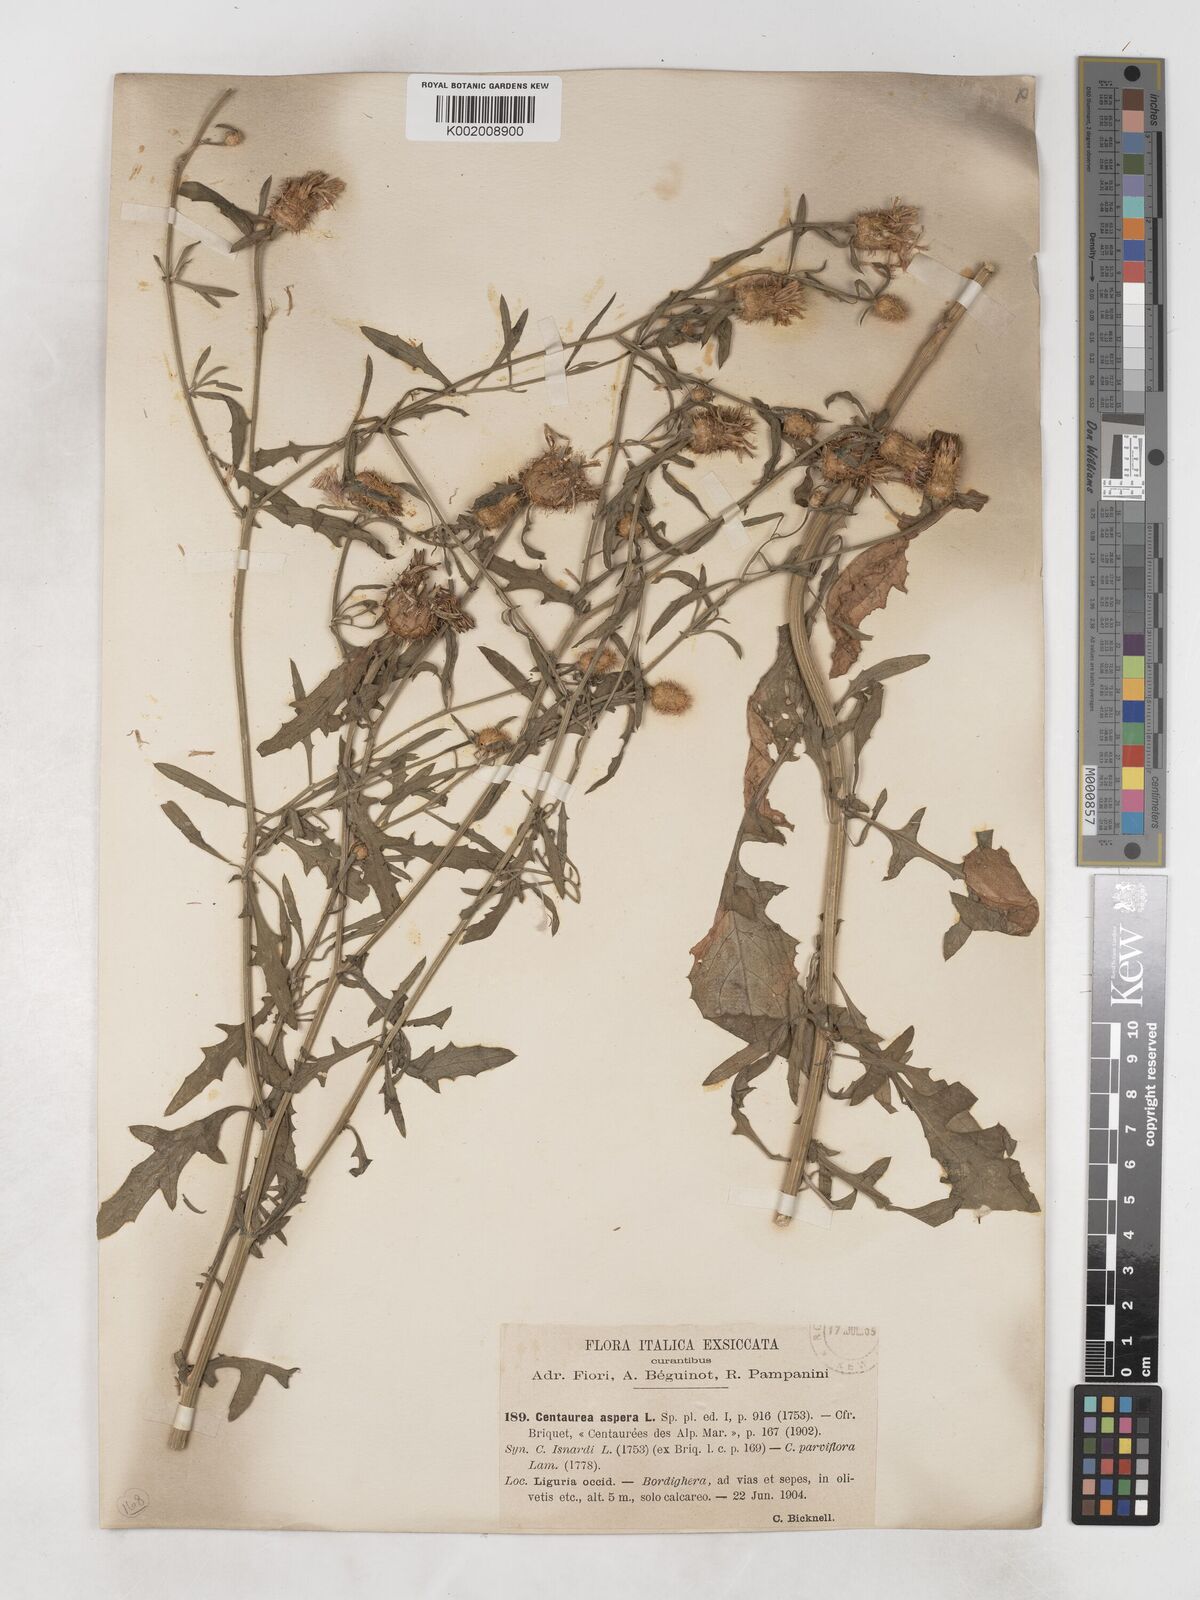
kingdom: Plantae
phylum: Tracheophyta
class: Magnoliopsida
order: Asterales
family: Asteraceae
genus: Centaurea
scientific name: Centaurea aspera
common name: Rough star-thistle
